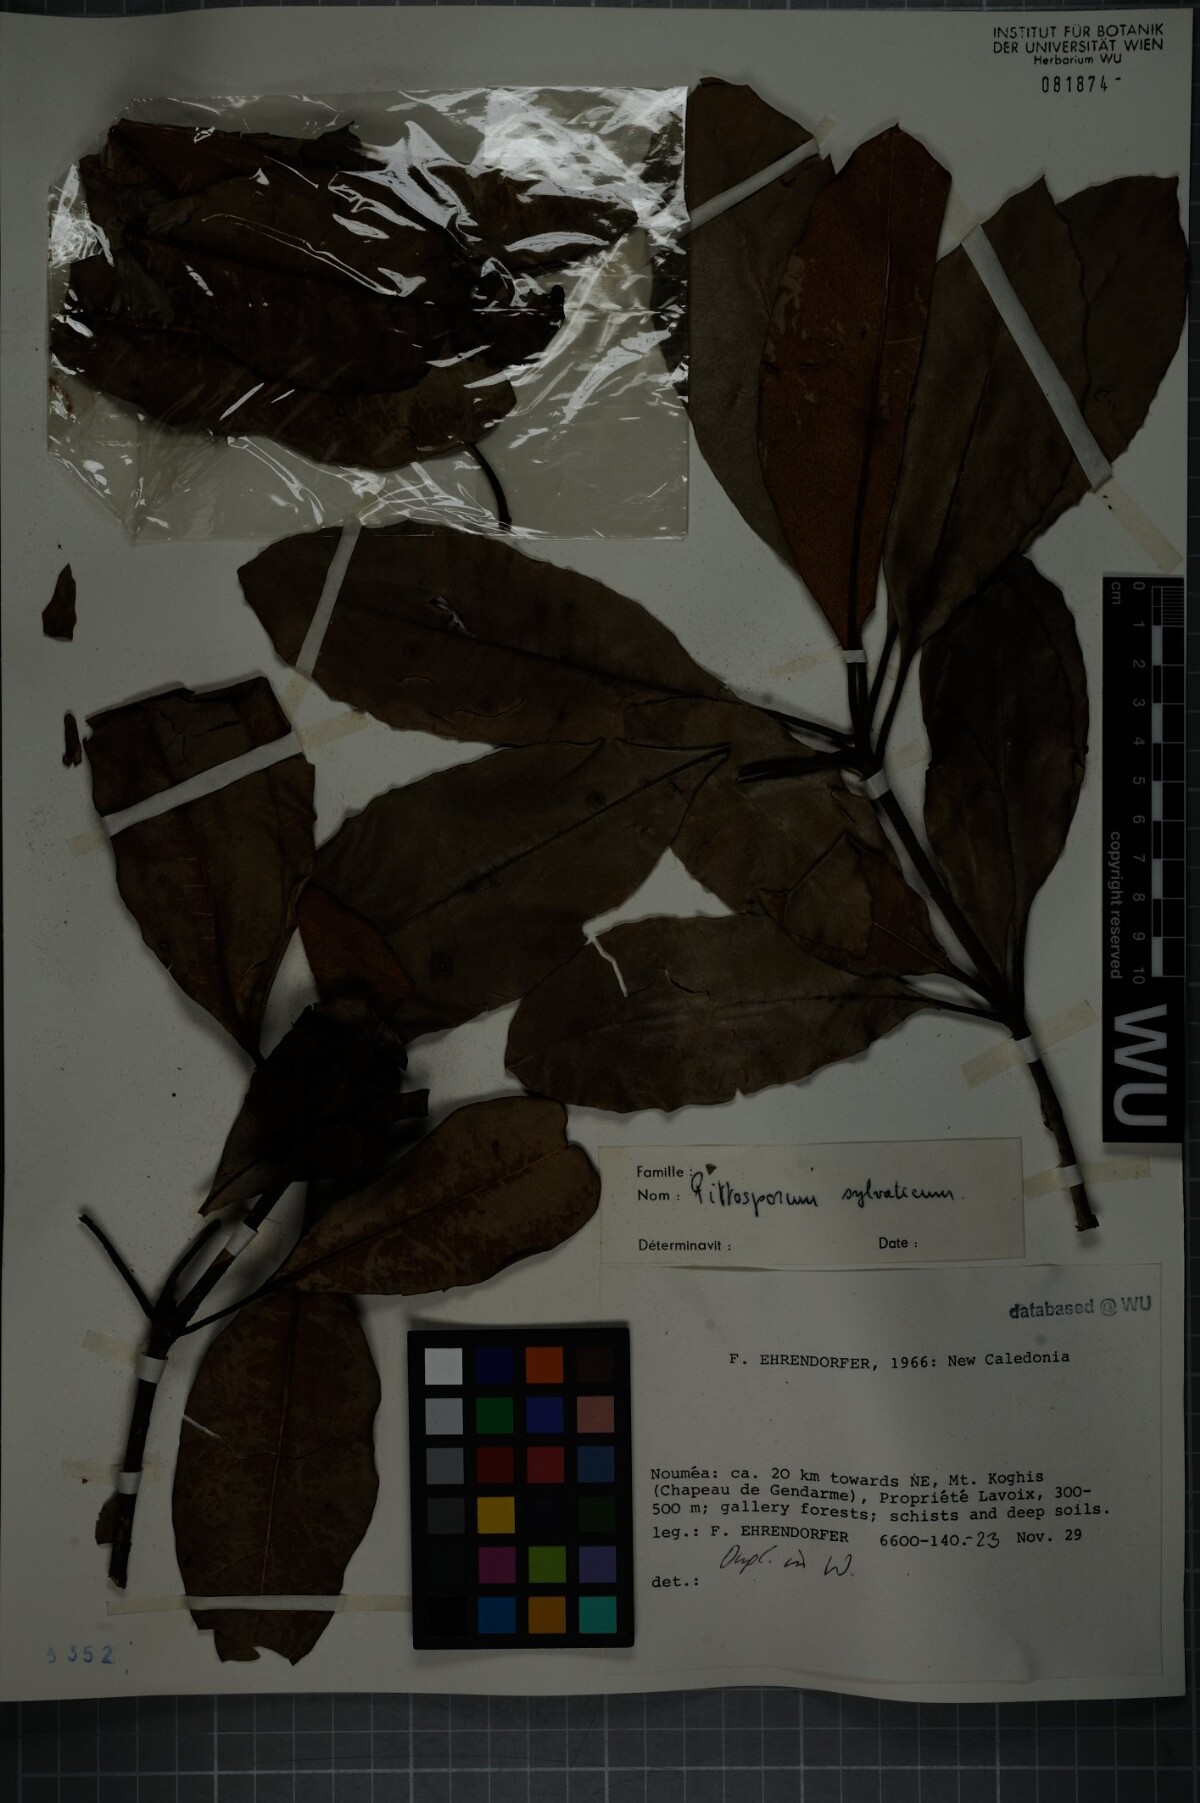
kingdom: Plantae
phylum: Tracheophyta
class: Magnoliopsida
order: Apiales
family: Pittosporaceae
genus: Pittosporum
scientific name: Pittosporum sylvaticum
